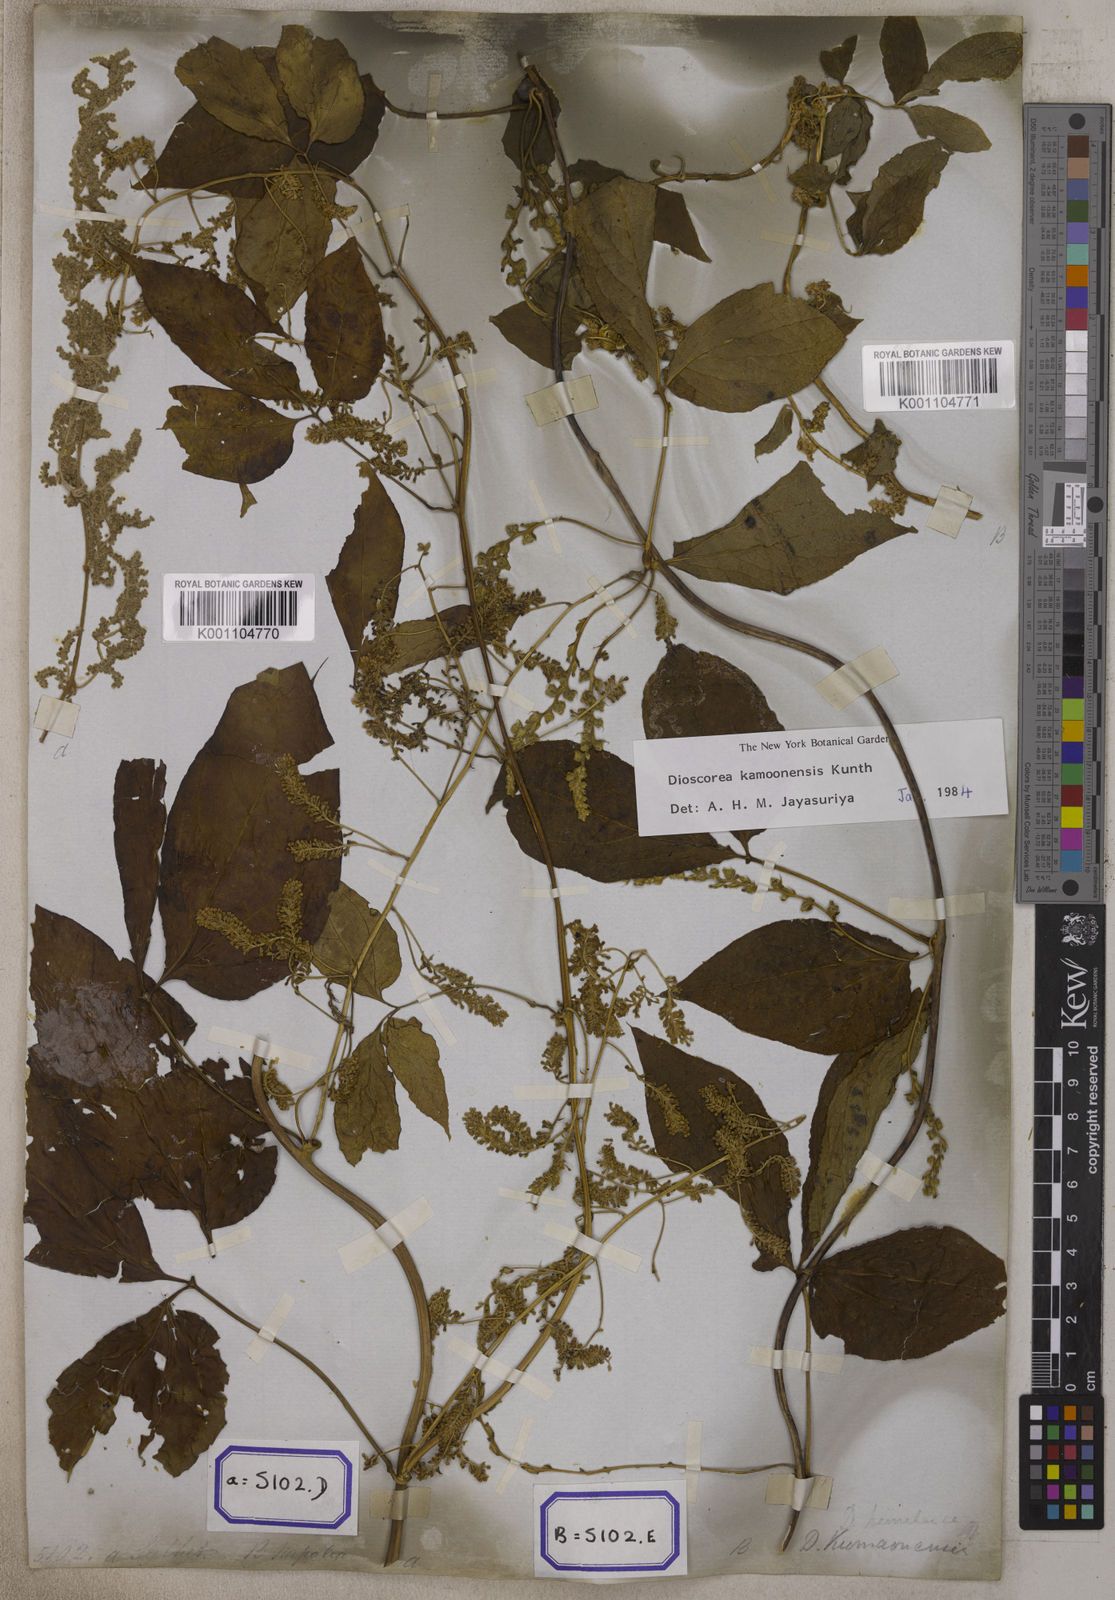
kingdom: Plantae
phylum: Tracheophyta
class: Liliopsida
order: Dioscoreales
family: Dioscoreaceae
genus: Dioscorea
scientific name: Dioscorea pentaphylla
